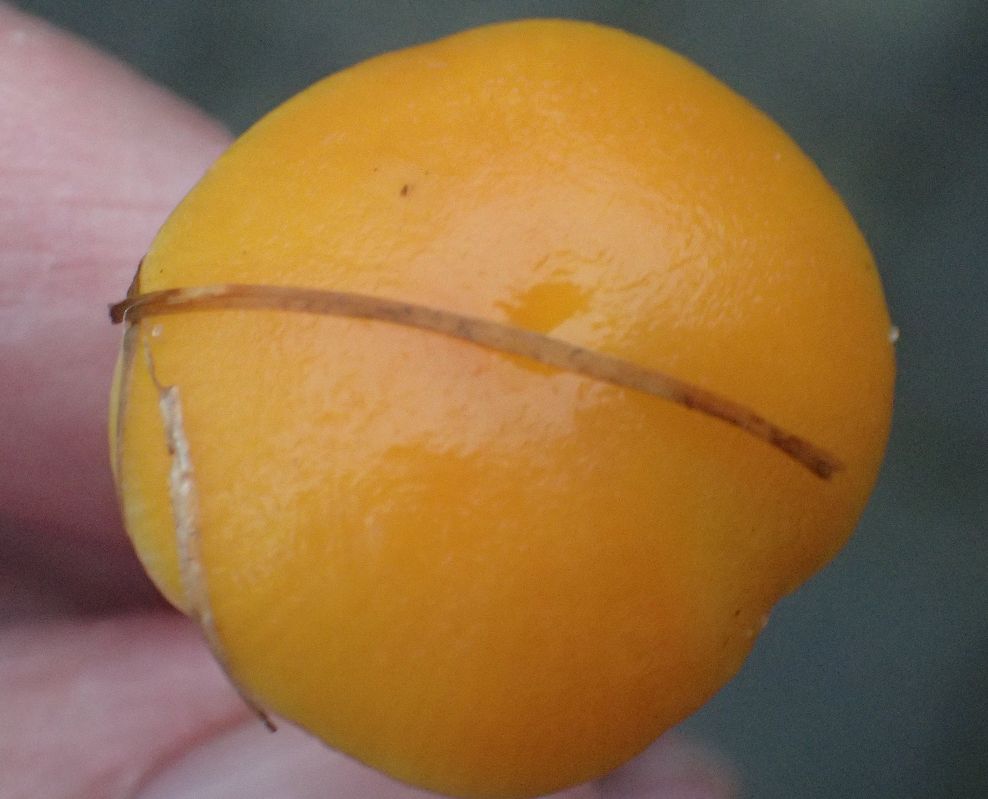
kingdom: Fungi
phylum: Basidiomycota
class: Agaricomycetes
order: Agaricales
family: Hygrophoraceae
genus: Hygrocybe
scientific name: Hygrocybe chlorophana
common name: gul vokshat
